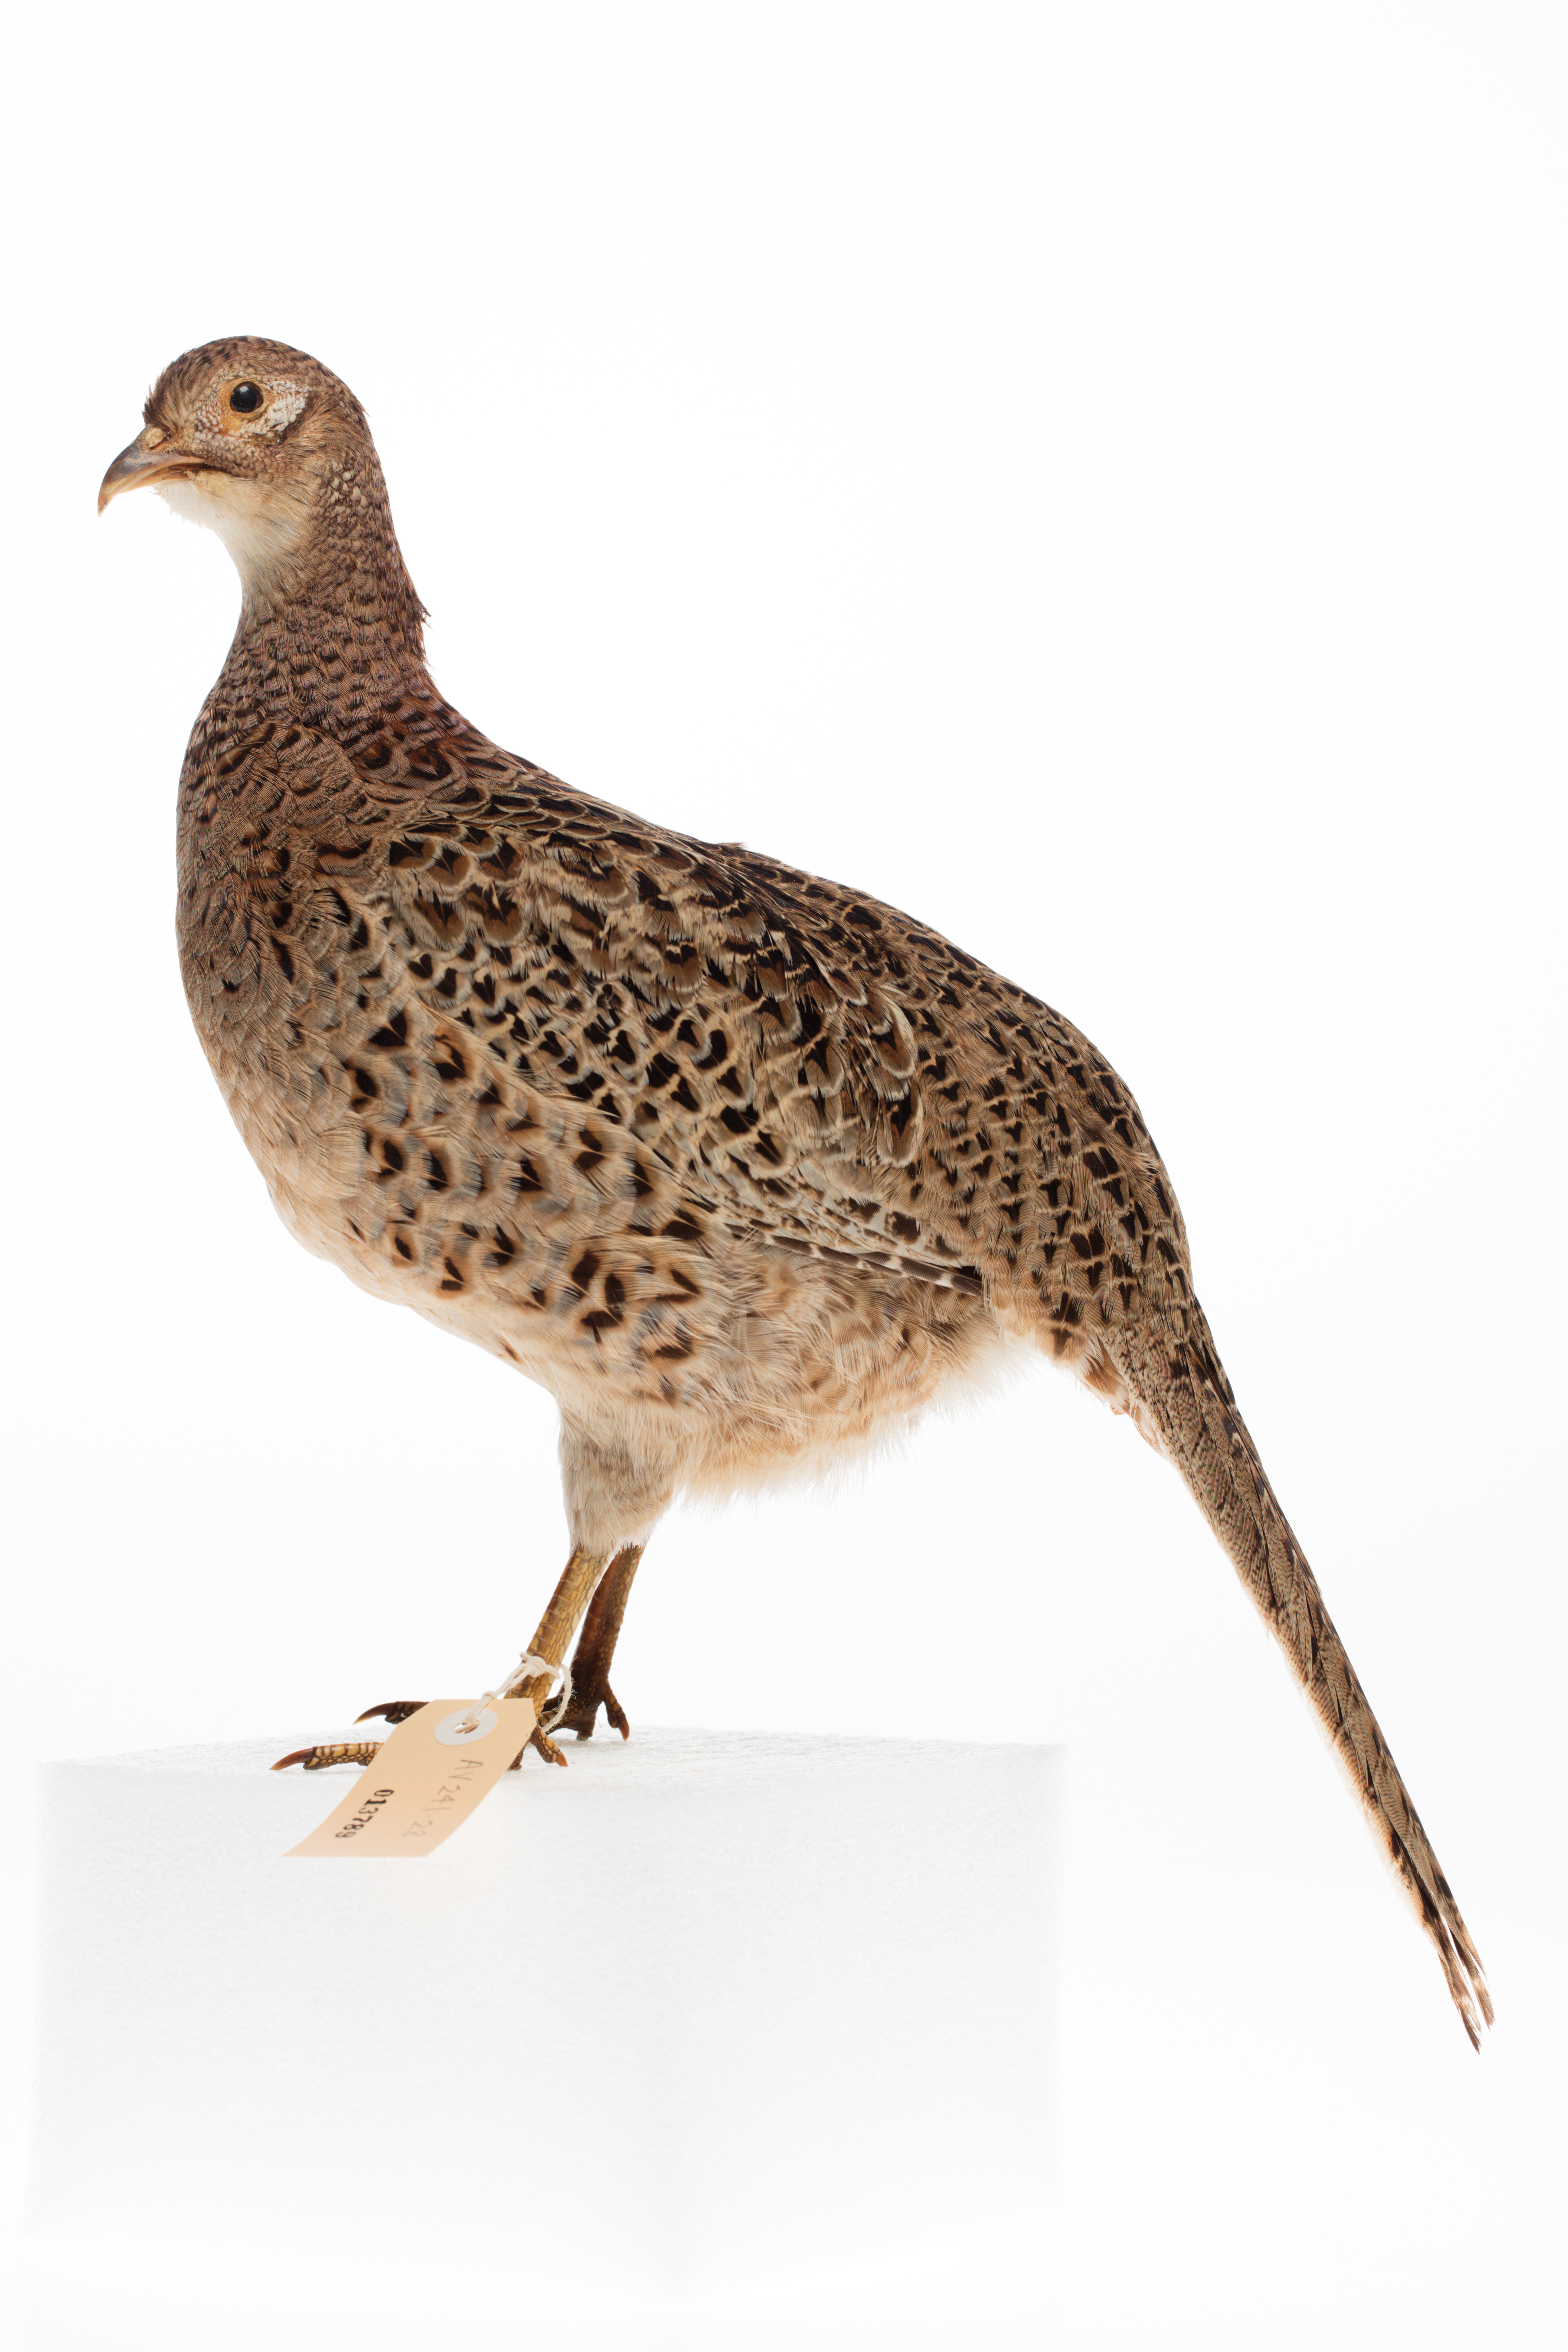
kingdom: Animalia
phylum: Chordata
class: Aves
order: Galliformes
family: Phasianidae
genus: Phasianus
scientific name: Phasianus colchicus
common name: Common pheasant
